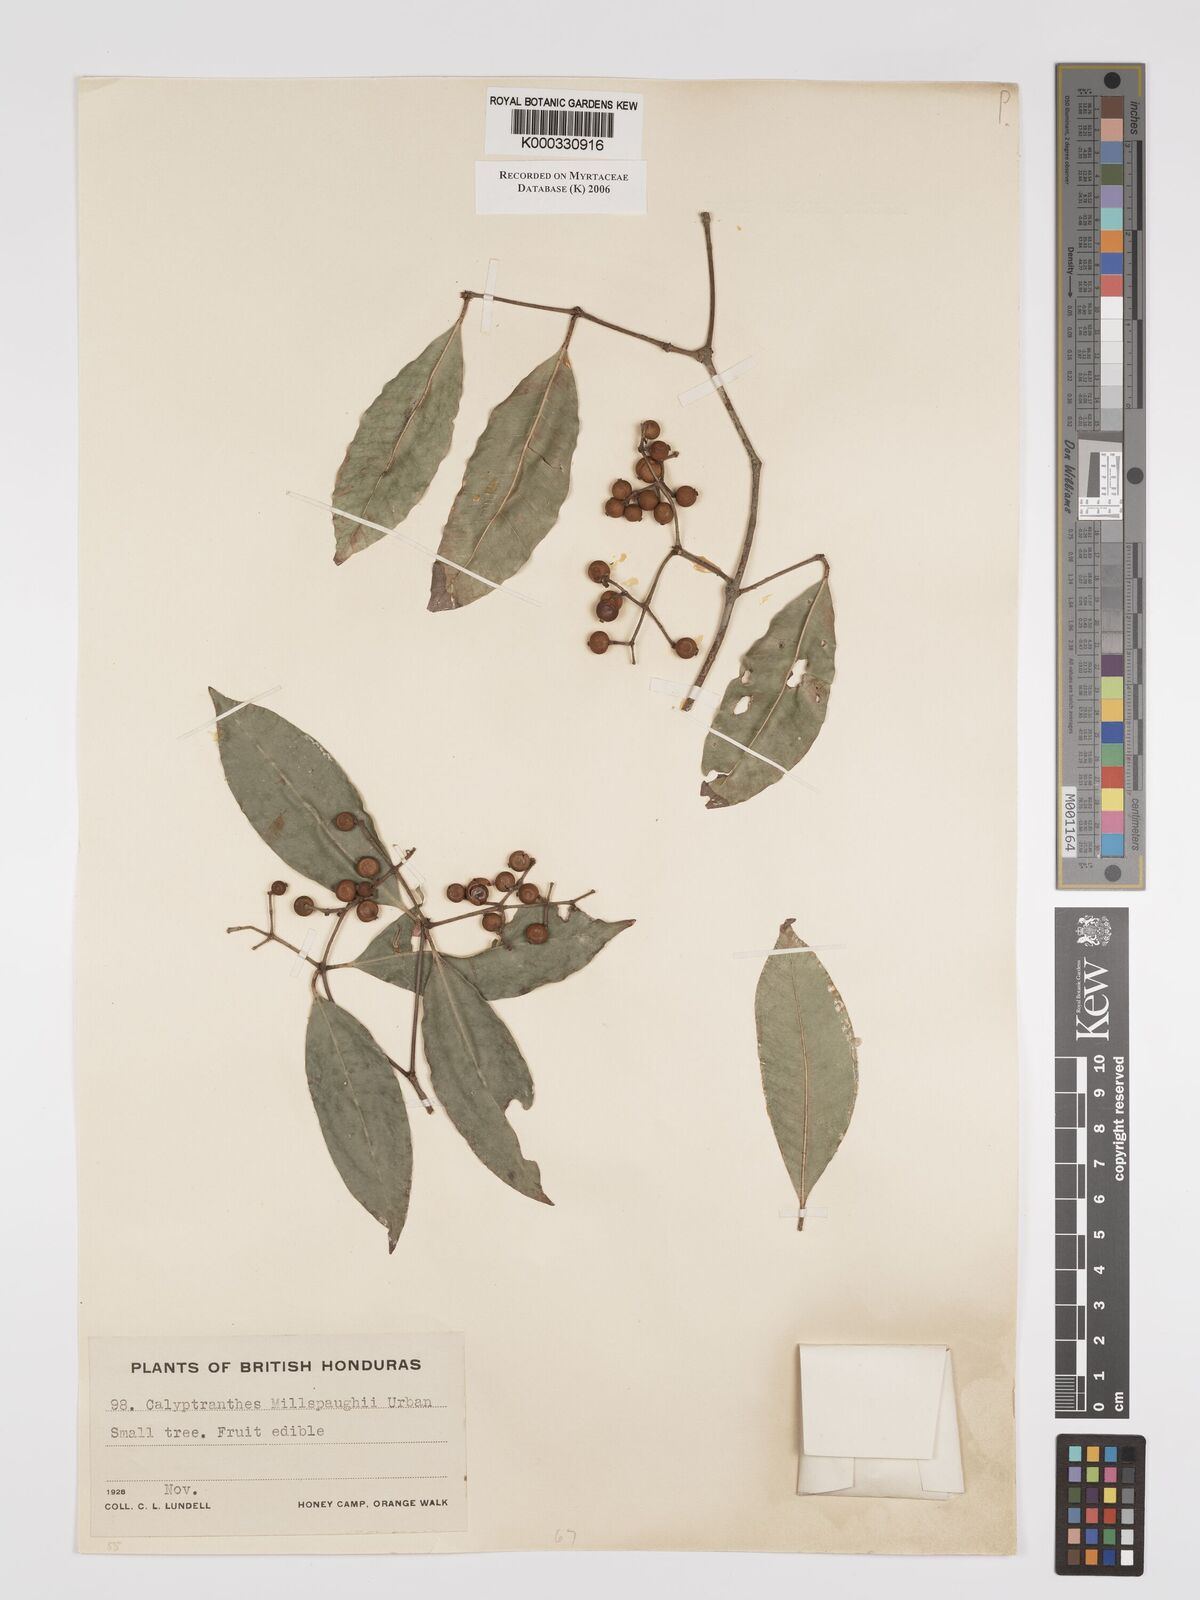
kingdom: Plantae
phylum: Tracheophyta
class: Magnoliopsida
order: Myrtales
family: Myrtaceae
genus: Myrcia
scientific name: Myrcia millspaughii
